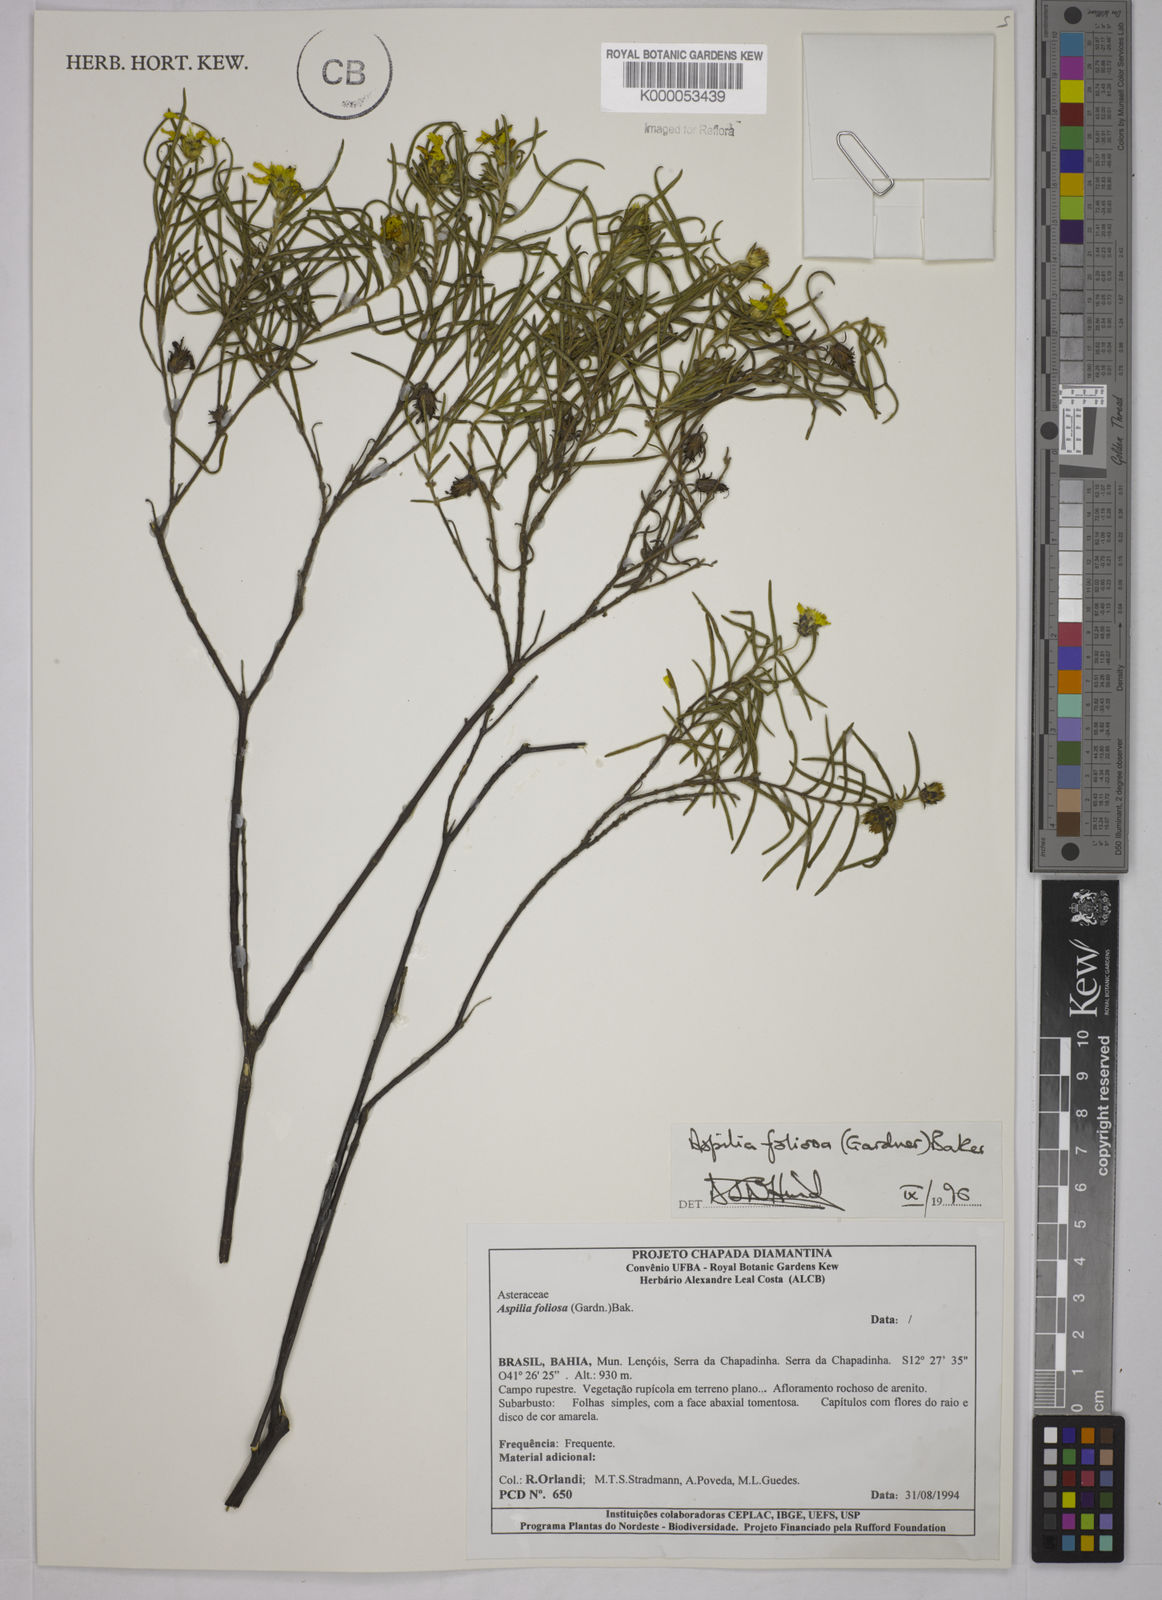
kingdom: Plantae
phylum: Tracheophyta
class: Magnoliopsida
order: Asterales
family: Asteraceae
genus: Aspilia
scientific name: Aspilia
